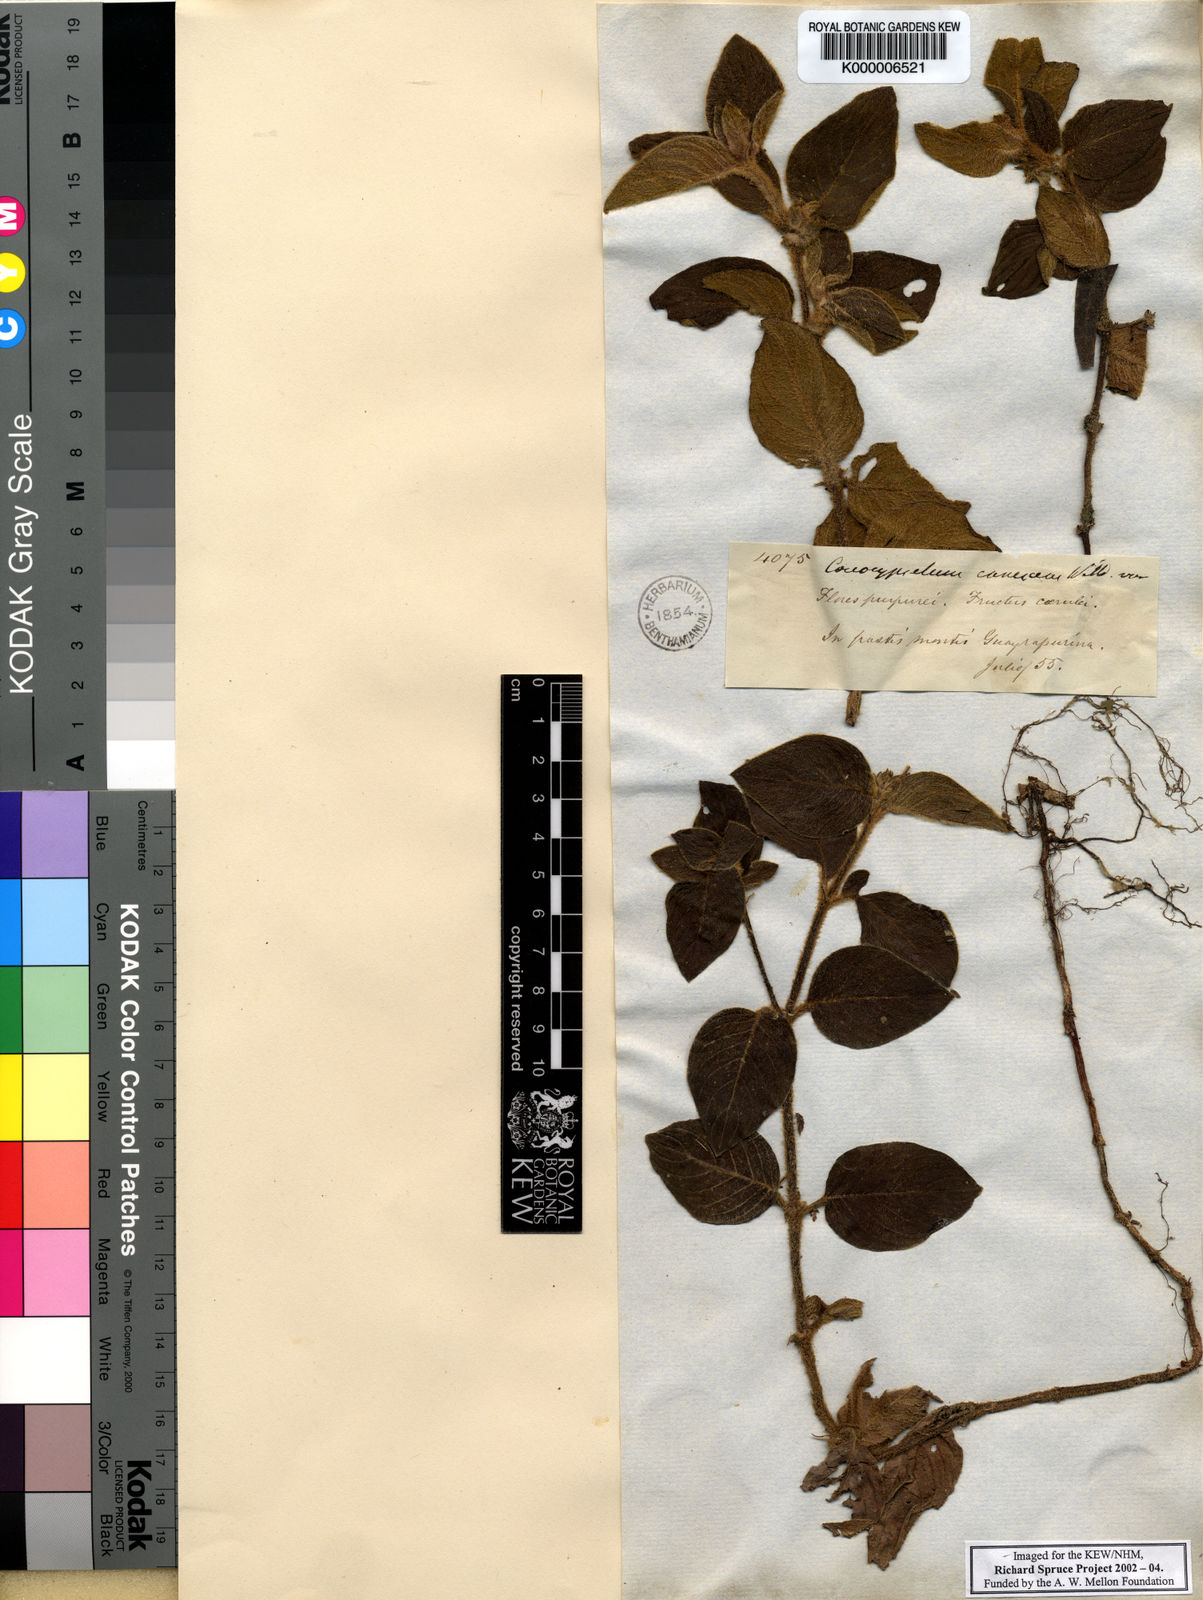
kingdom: Plantae
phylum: Tracheophyta
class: Magnoliopsida
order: Gentianales
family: Rubiaceae
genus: Coccocypselum
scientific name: Coccocypselum lanceolatum
